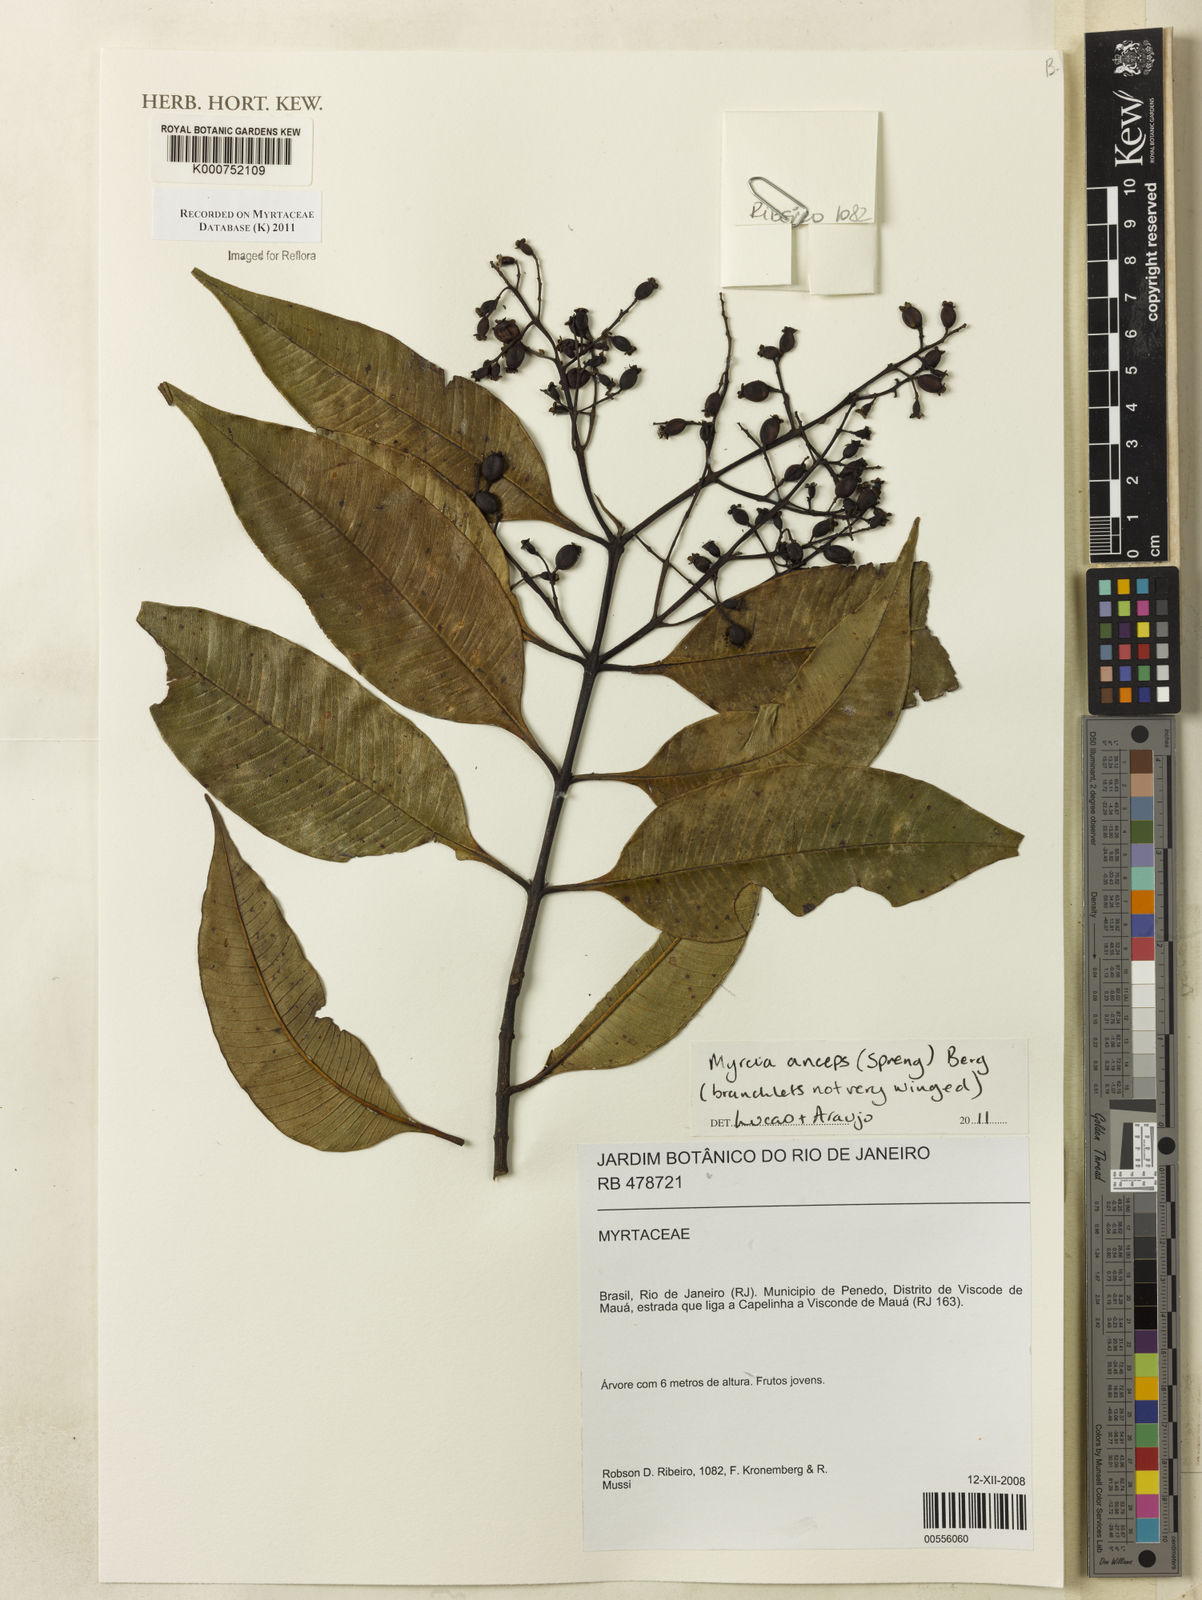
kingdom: Plantae
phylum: Tracheophyta
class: Magnoliopsida
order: Myrtales
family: Myrtaceae
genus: Myrcia
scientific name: Myrcia anceps
